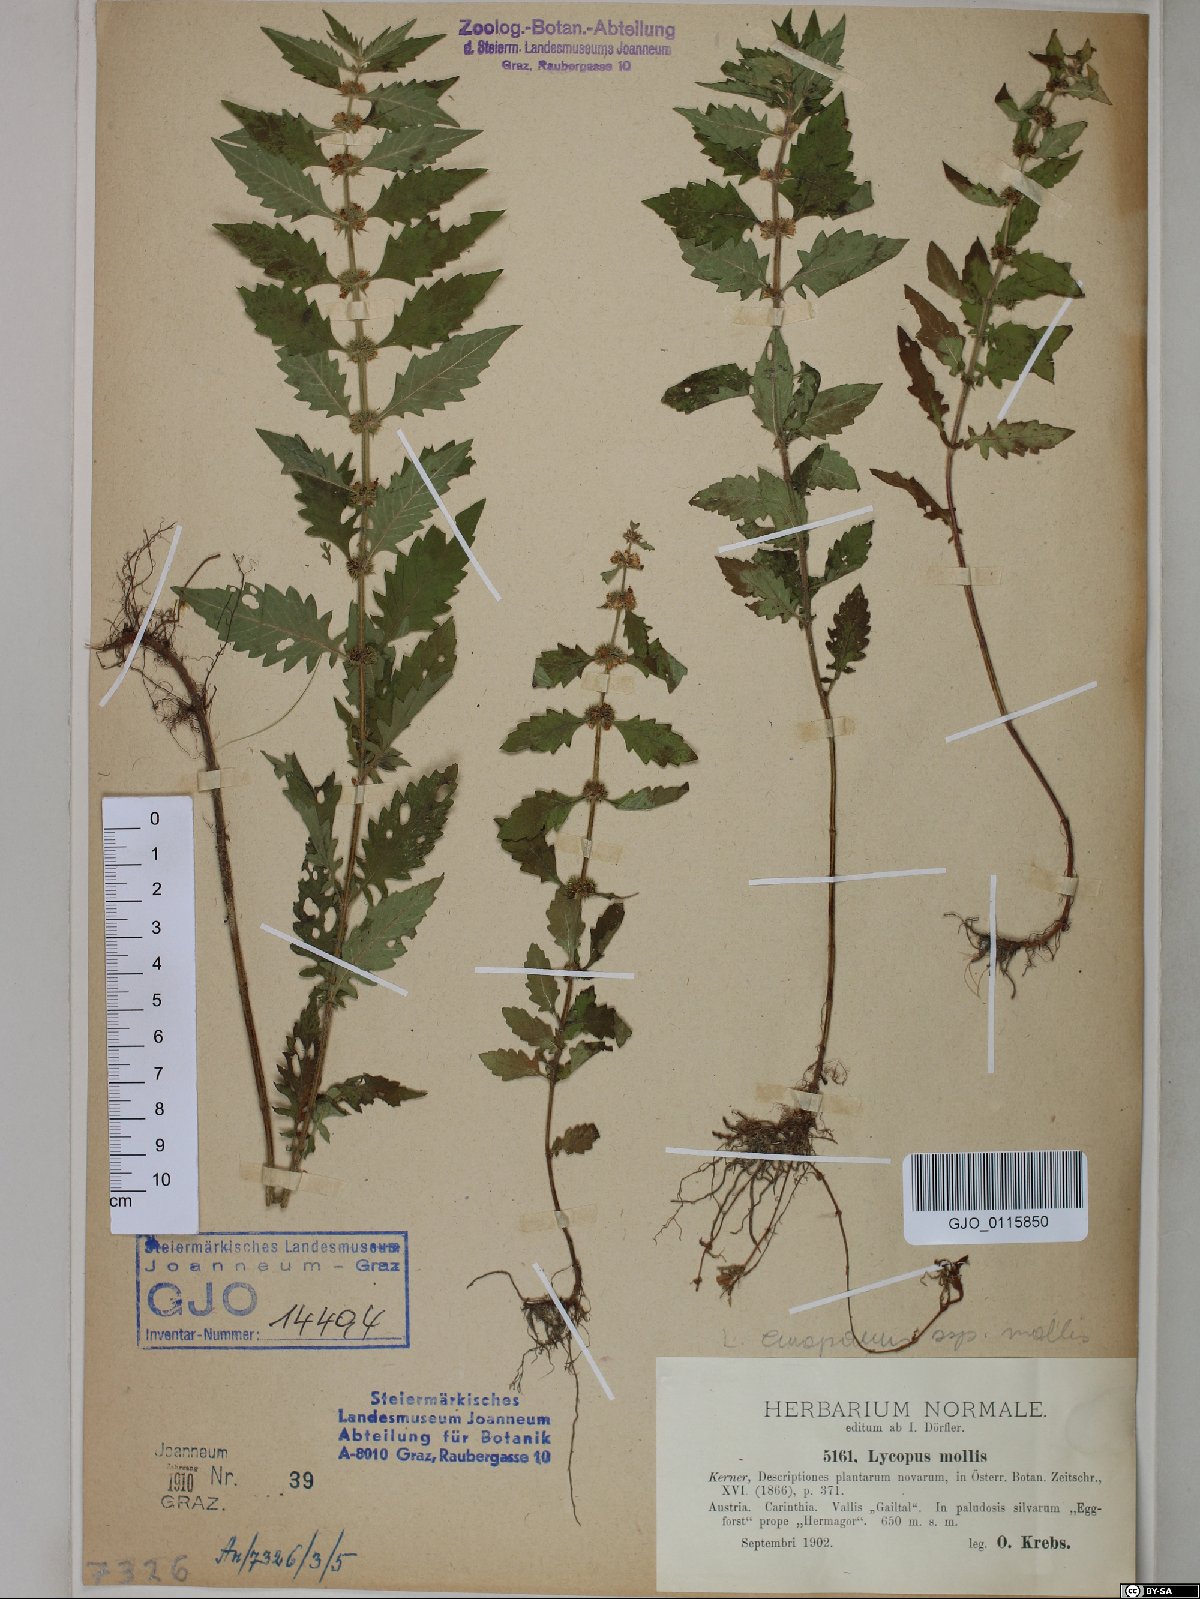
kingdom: Plantae
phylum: Tracheophyta
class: Magnoliopsida
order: Lamiales
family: Lamiaceae
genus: Lycopus
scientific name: Lycopus europaeus
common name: European bugleweed
